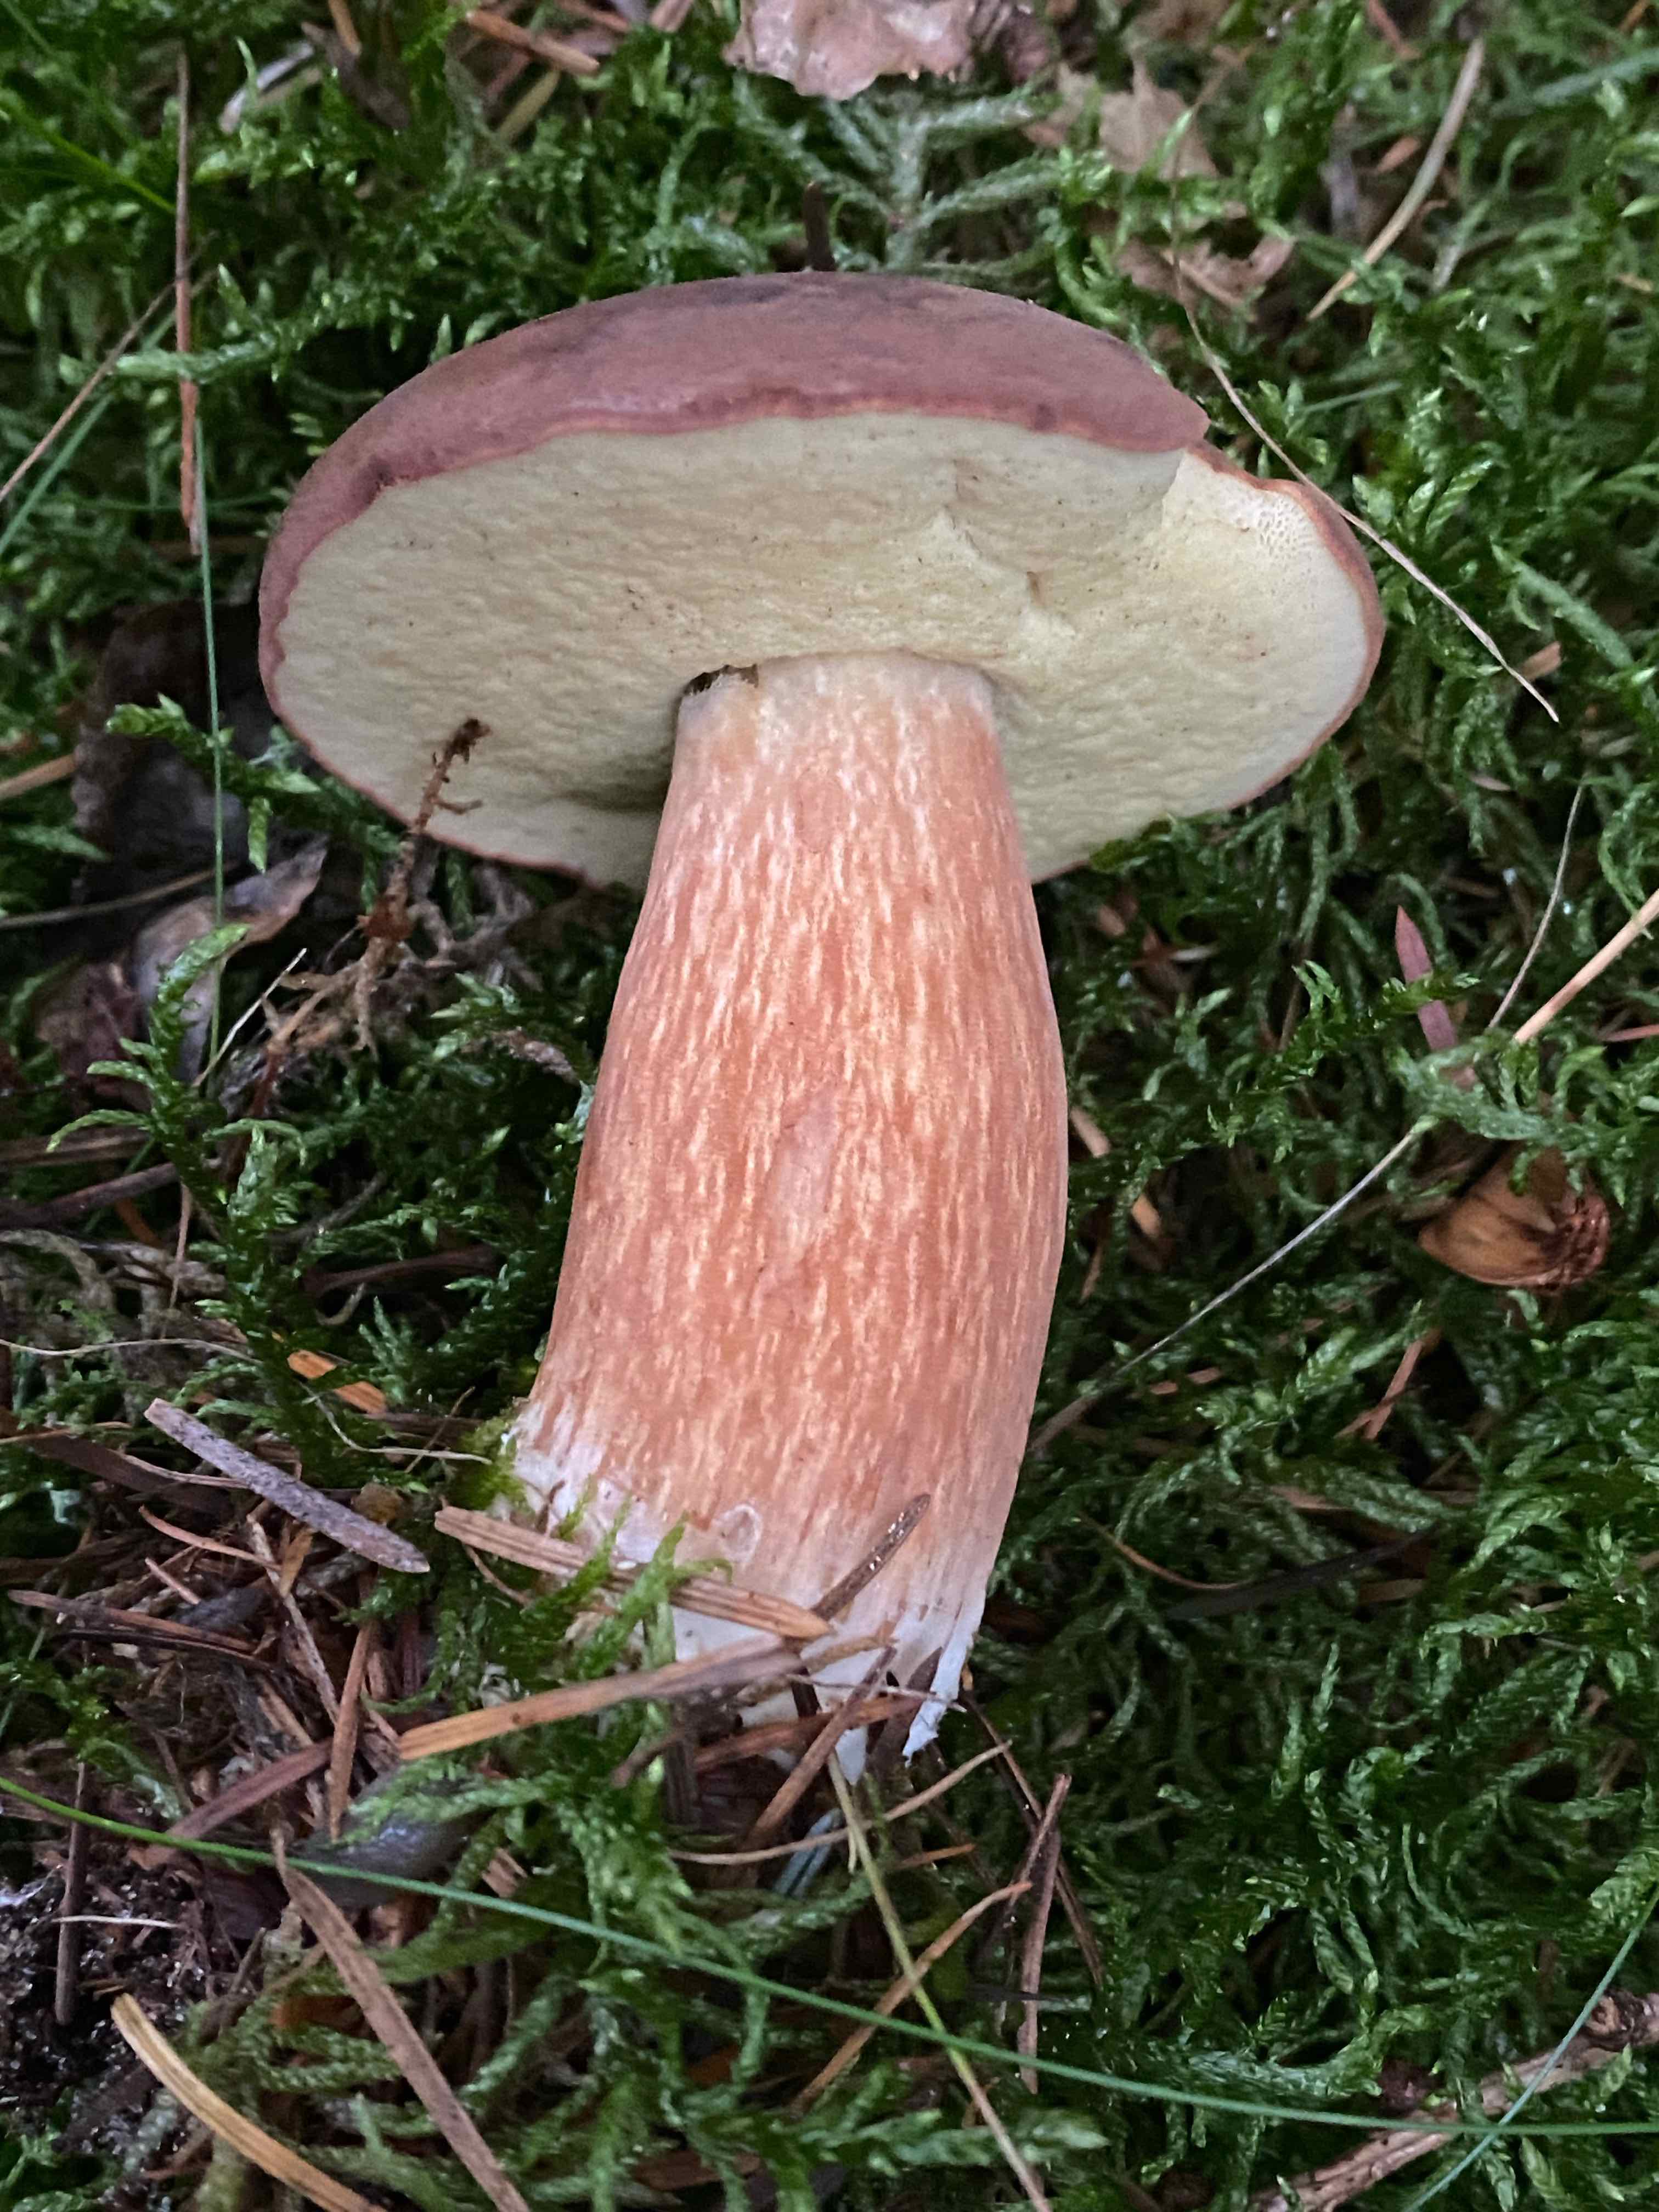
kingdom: Fungi
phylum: Basidiomycota
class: Agaricomycetes
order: Boletales
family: Boletaceae
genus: Imleria
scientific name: Imleria badia
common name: brunstokket rørhat
